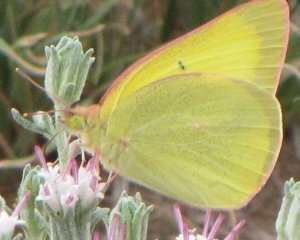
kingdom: Animalia
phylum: Arthropoda
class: Insecta
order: Lepidoptera
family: Pieridae
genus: Colias
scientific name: Colias alexandra
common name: Queen Alexandra's Sulphur
